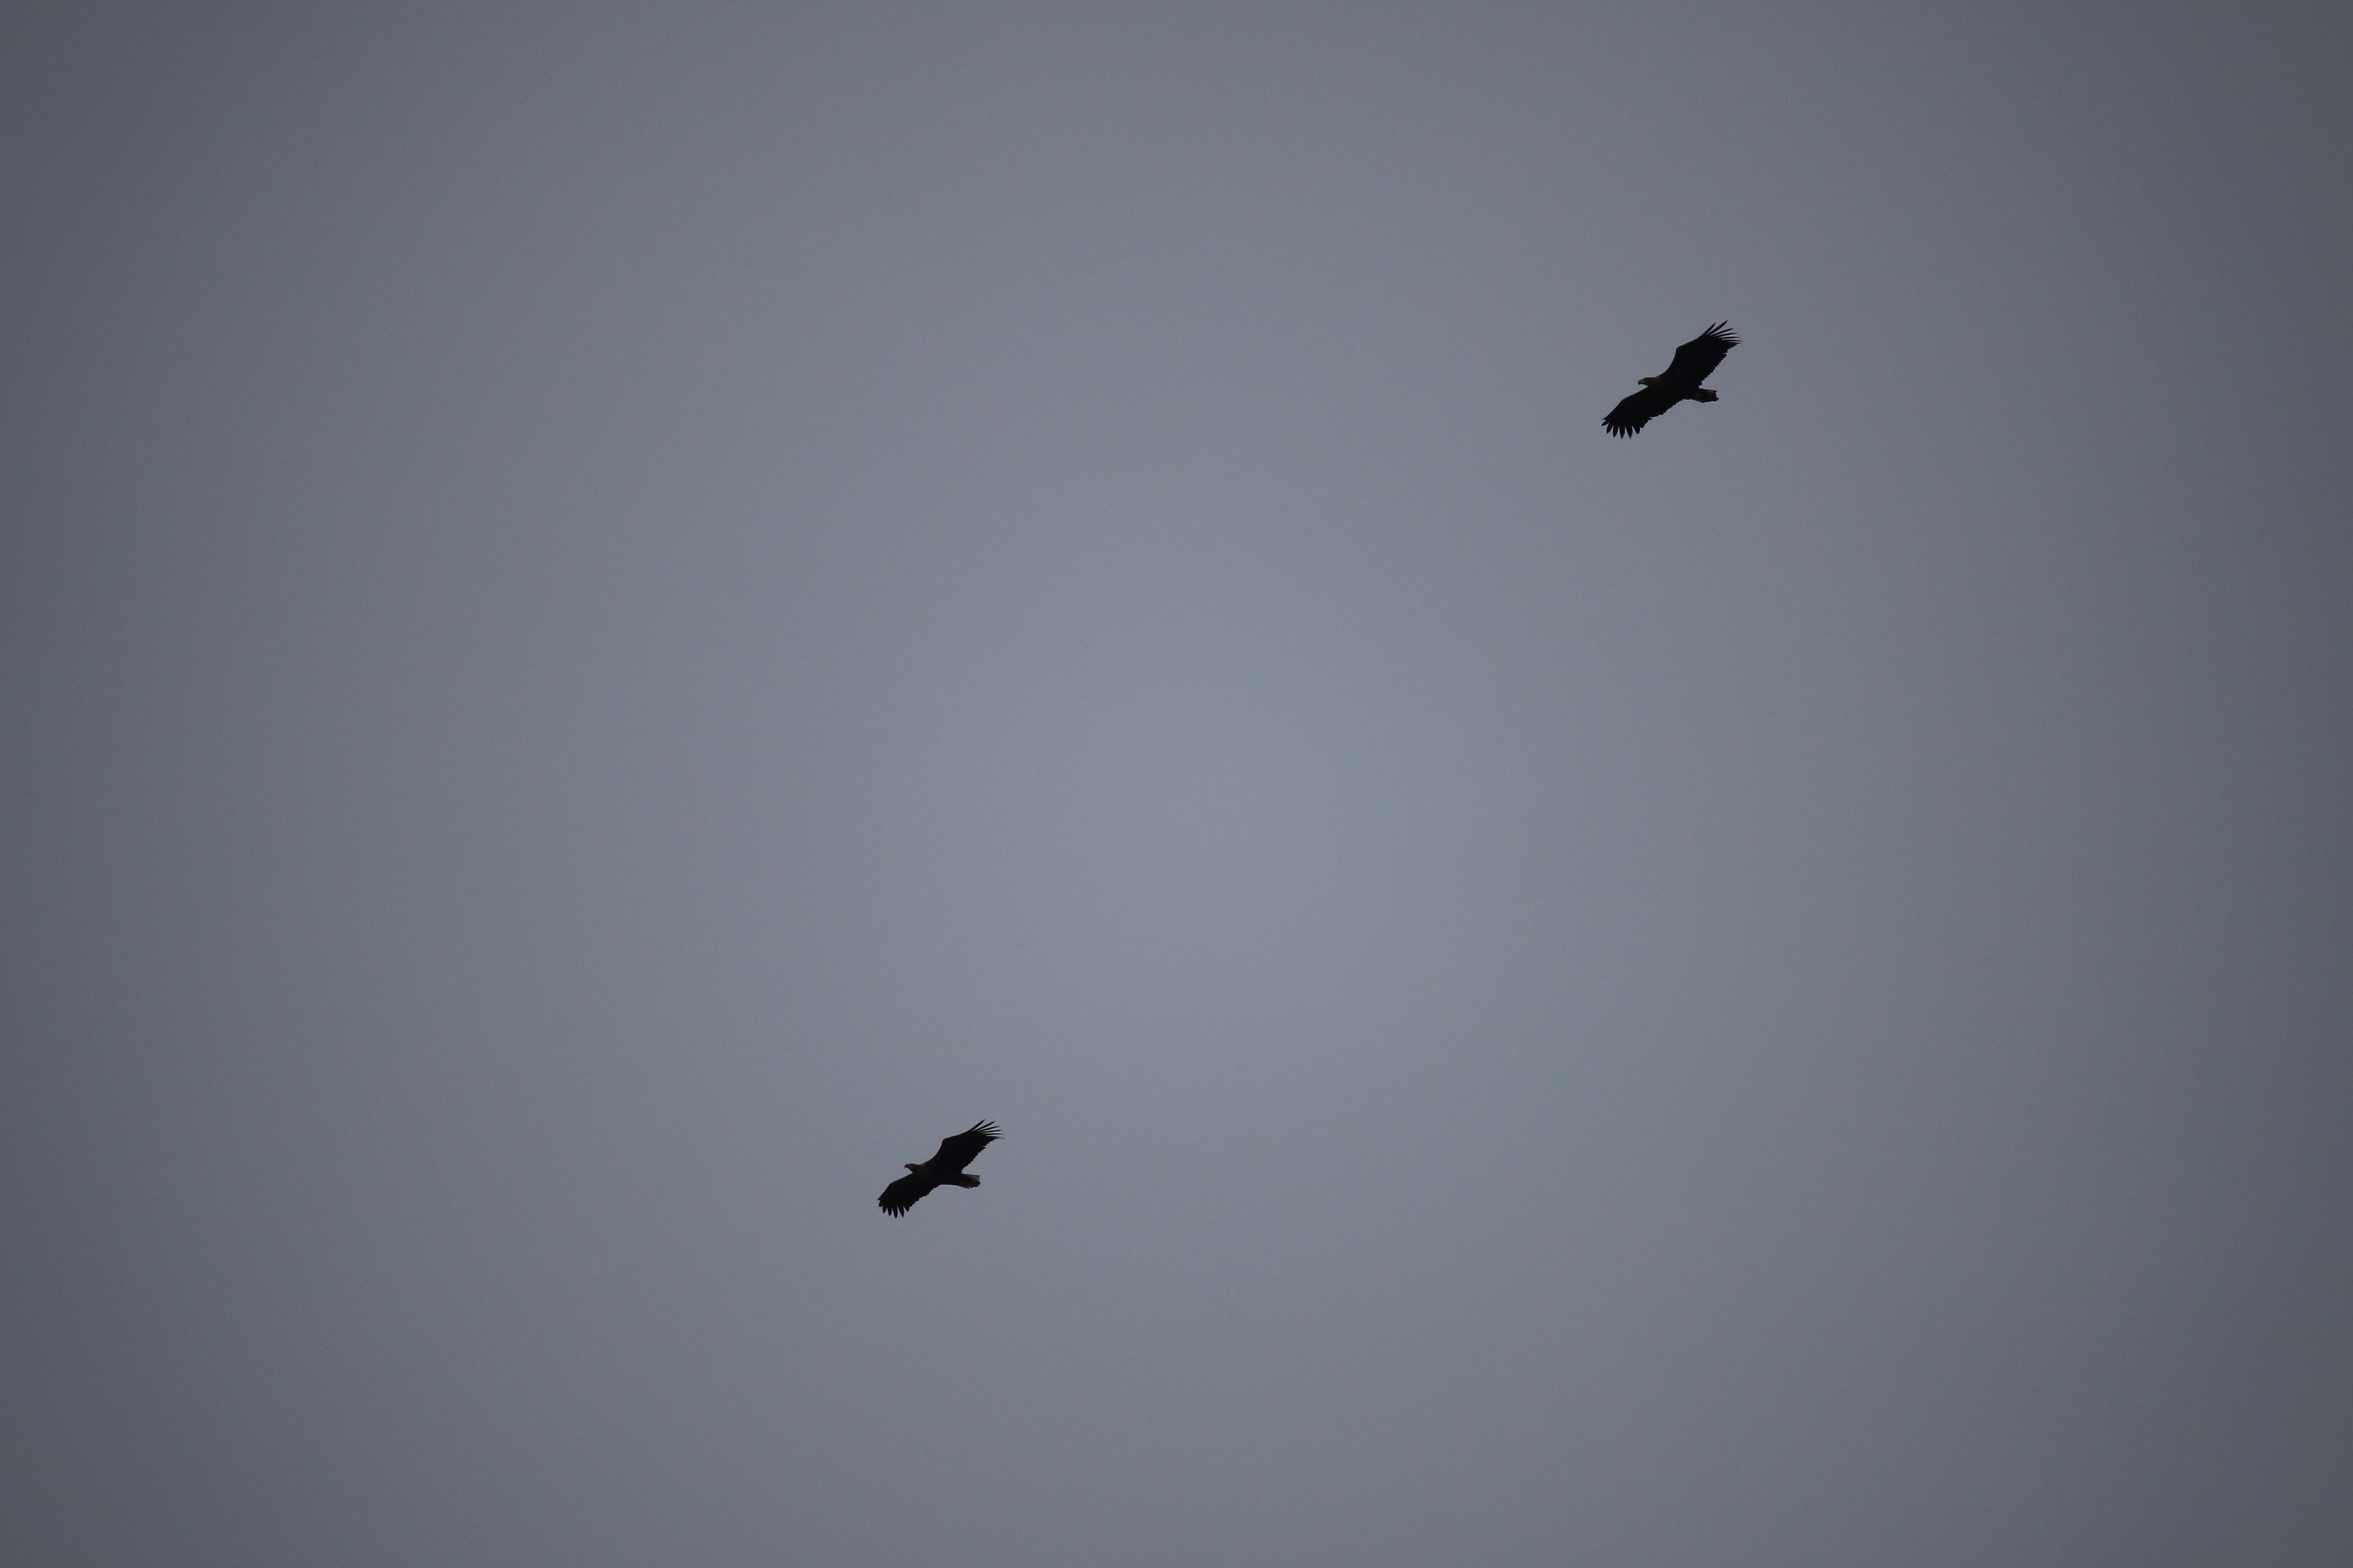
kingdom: Animalia
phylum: Chordata
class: Aves
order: Accipitriformes
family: Accipitridae
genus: Haliaeetus
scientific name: Haliaeetus albicilla
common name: Havørn
